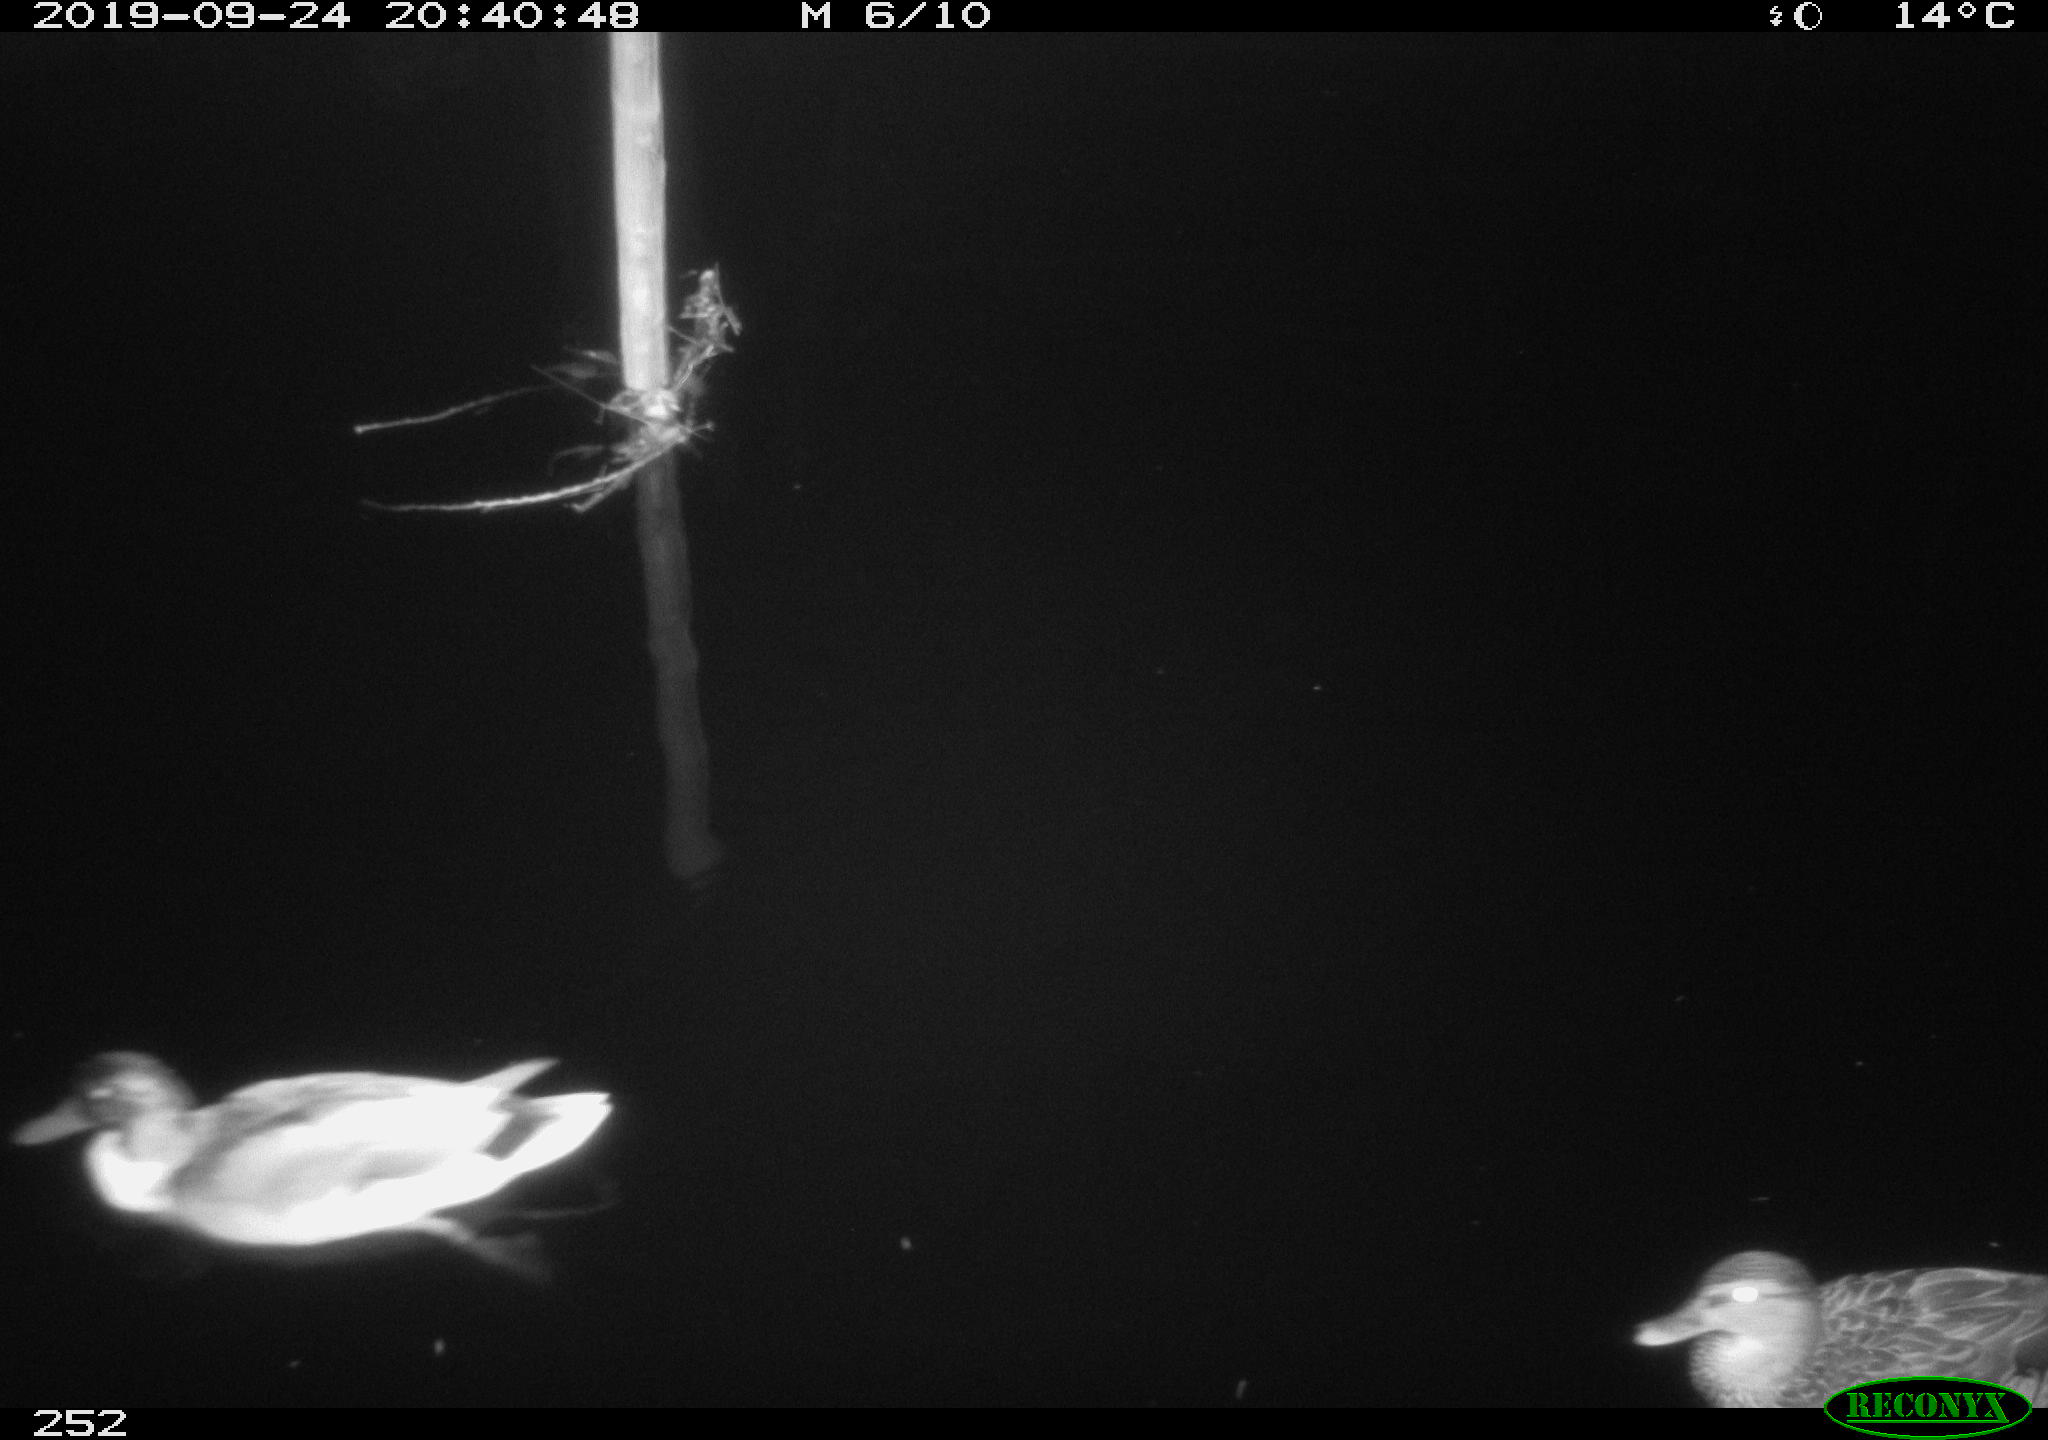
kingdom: Animalia
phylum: Chordata
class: Aves
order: Anseriformes
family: Anatidae
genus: Anas
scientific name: Anas platyrhynchos
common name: Mallard
